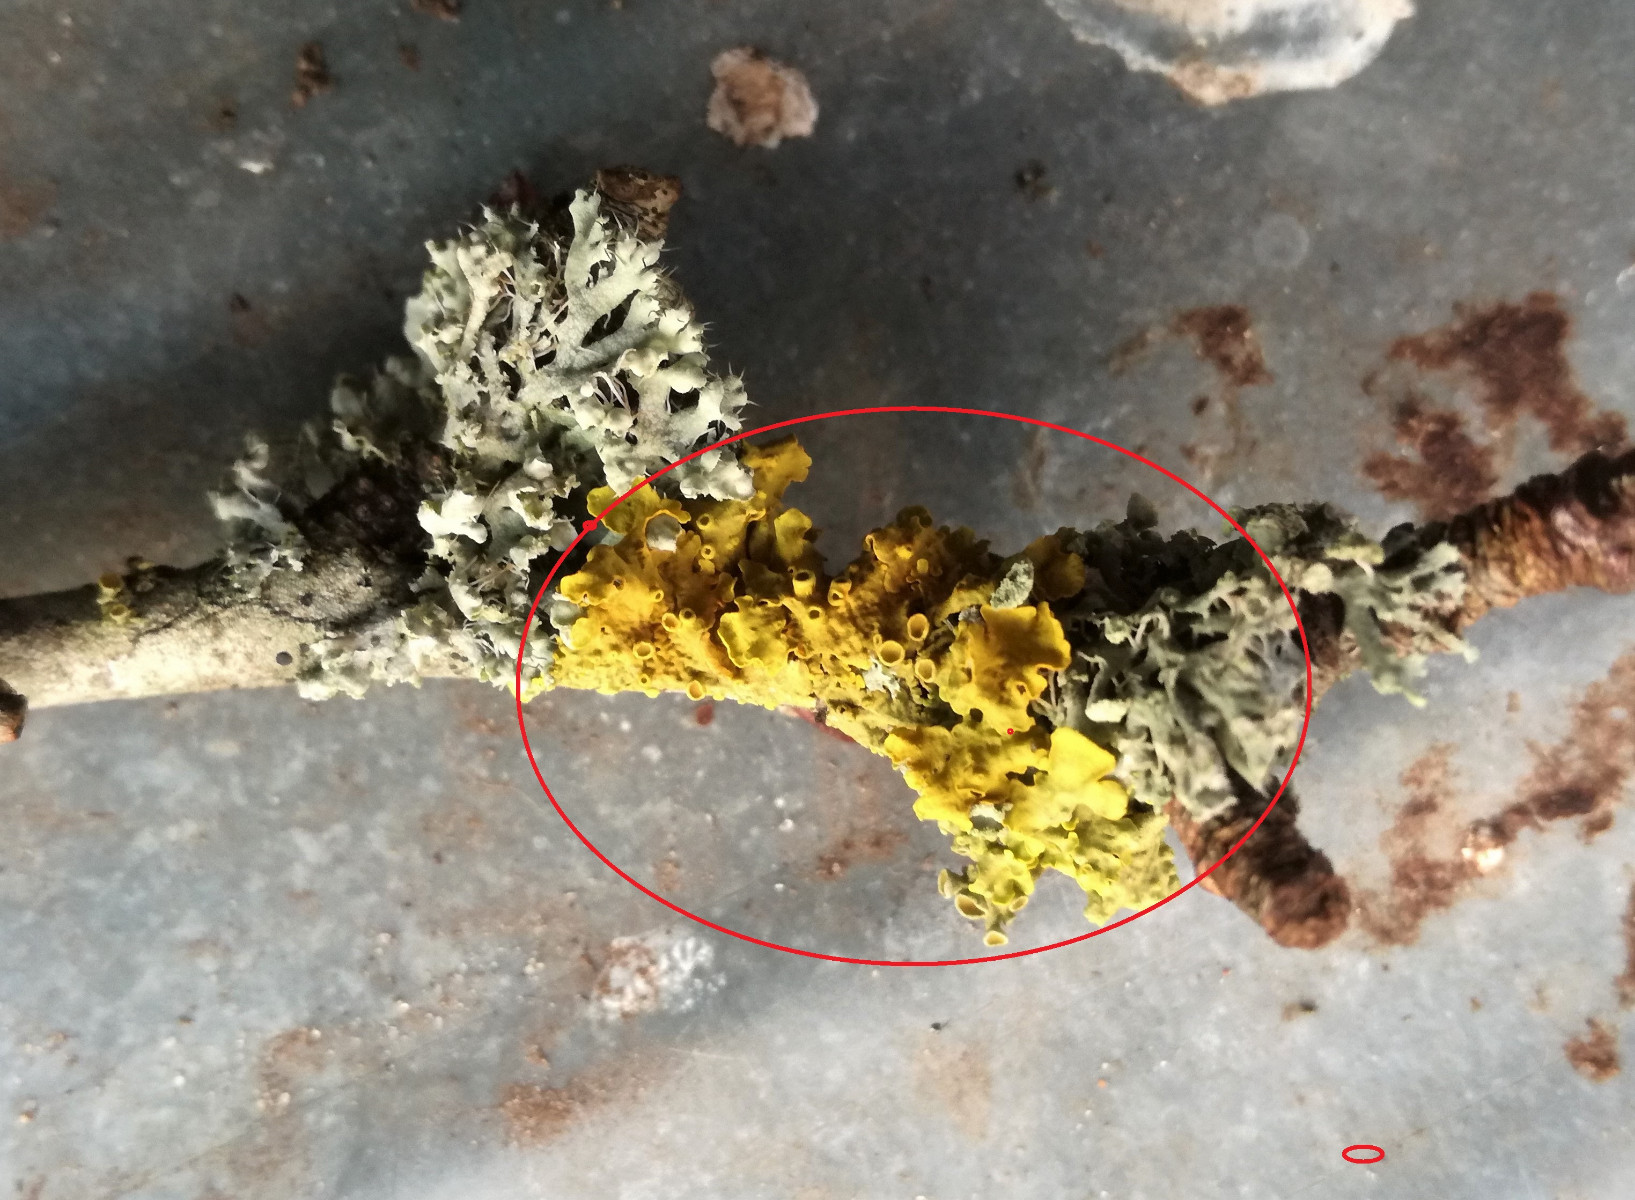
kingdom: Fungi
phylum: Ascomycota
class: Lecanoromycetes
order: Teloschistales
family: Teloschistaceae
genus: Xanthoria
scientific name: Xanthoria parietina
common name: almindelig væggelav
